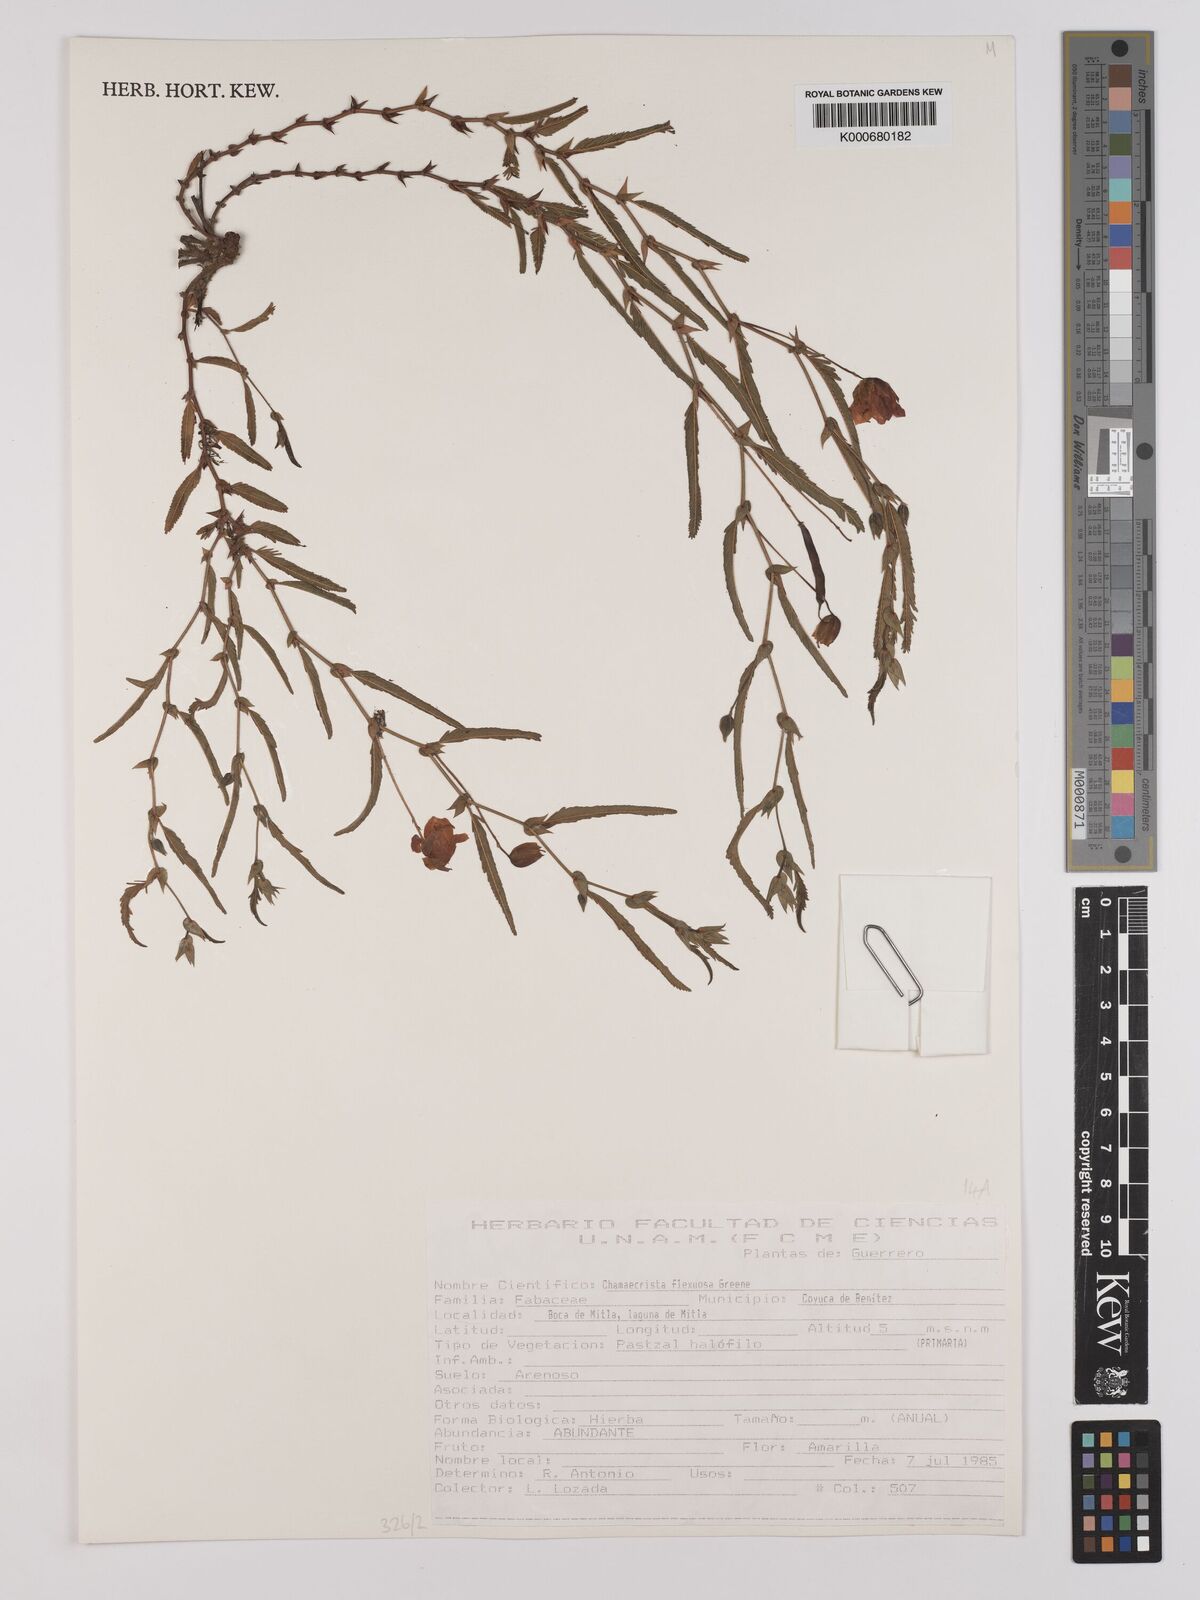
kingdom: Plantae
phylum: Tracheophyta
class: Magnoliopsida
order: Fabales
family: Fabaceae
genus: Chamaecrista
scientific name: Chamaecrista flexuosa
